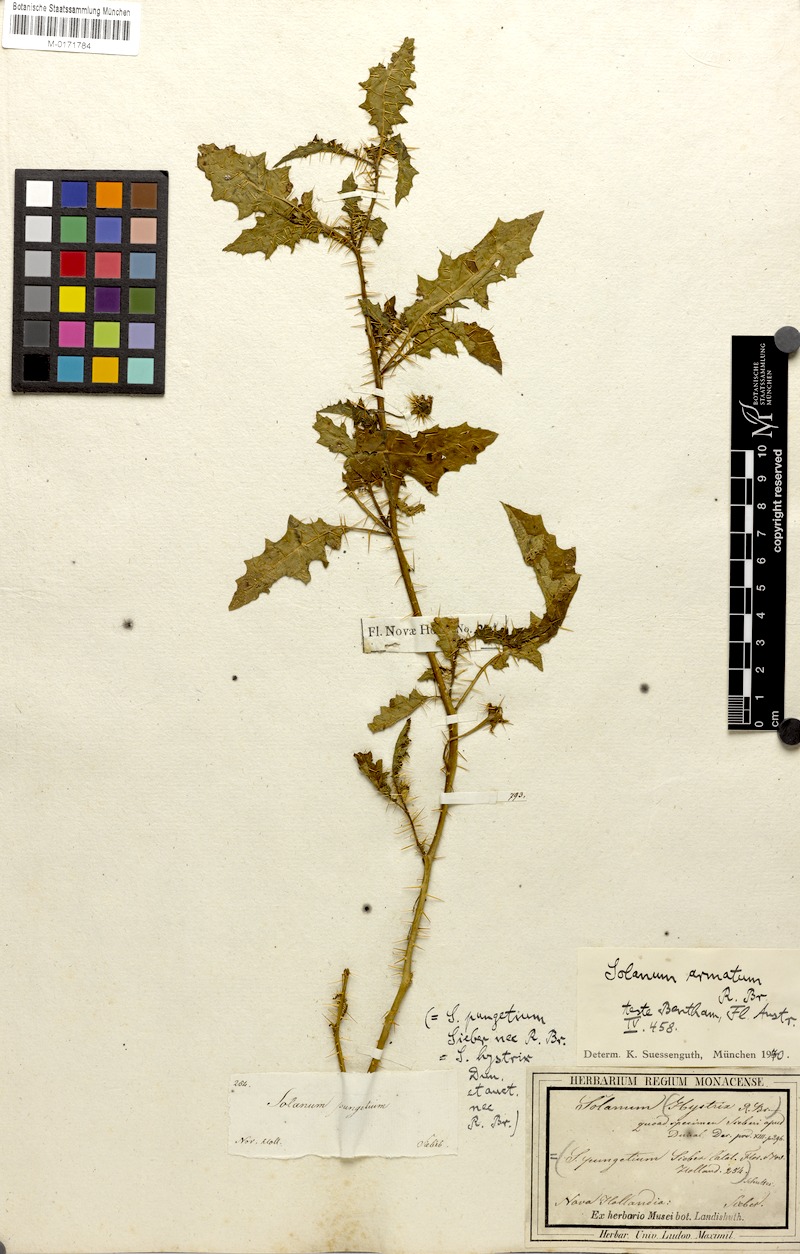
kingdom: Plantae
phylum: Tracheophyta
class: Magnoliopsida
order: Solanales
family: Solanaceae
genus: Solanum
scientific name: Solanum prinophyllum
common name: Forest nightshade
